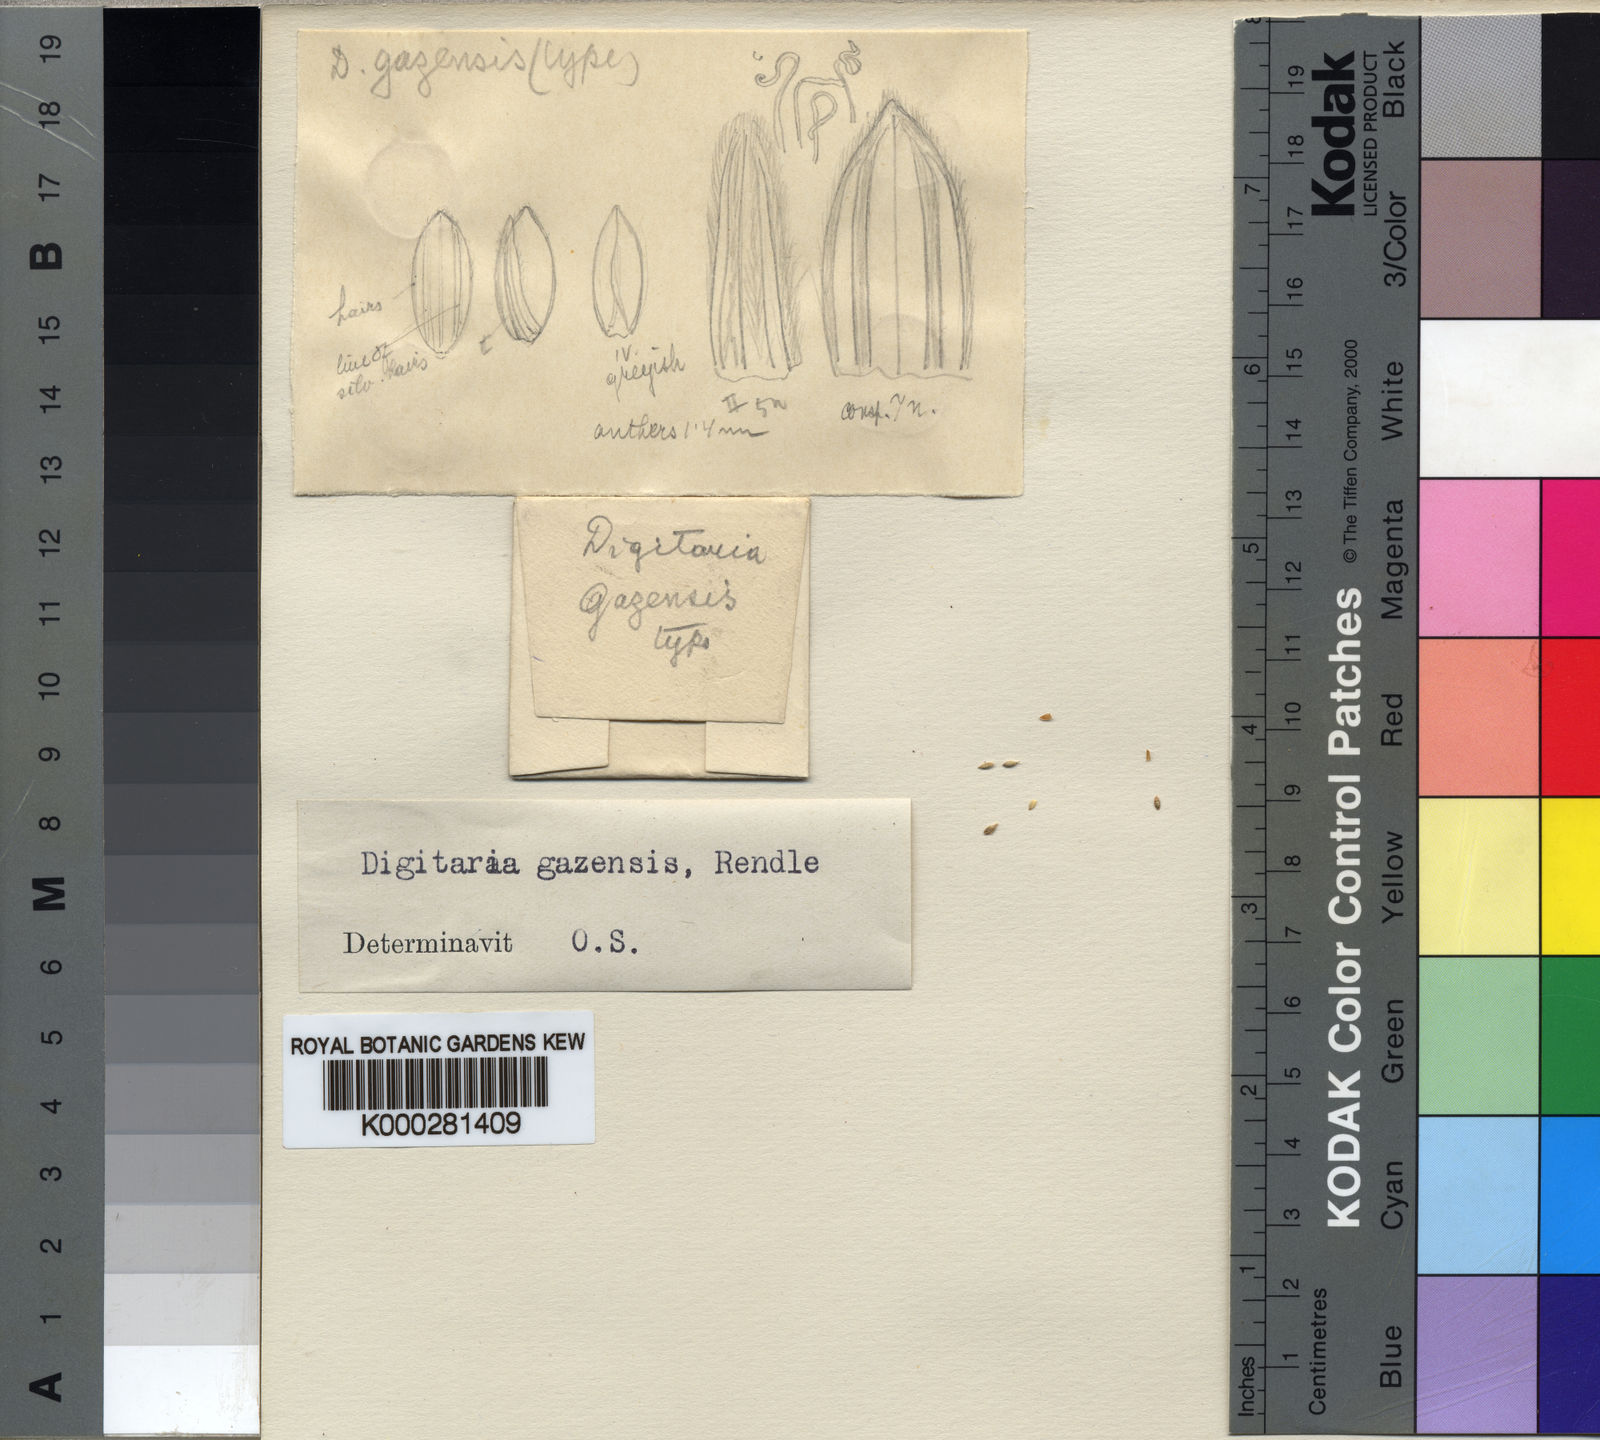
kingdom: Plantae
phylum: Tracheophyta
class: Liliopsida
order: Poales
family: Poaceae
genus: Digitaria
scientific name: Digitaria gazensis
